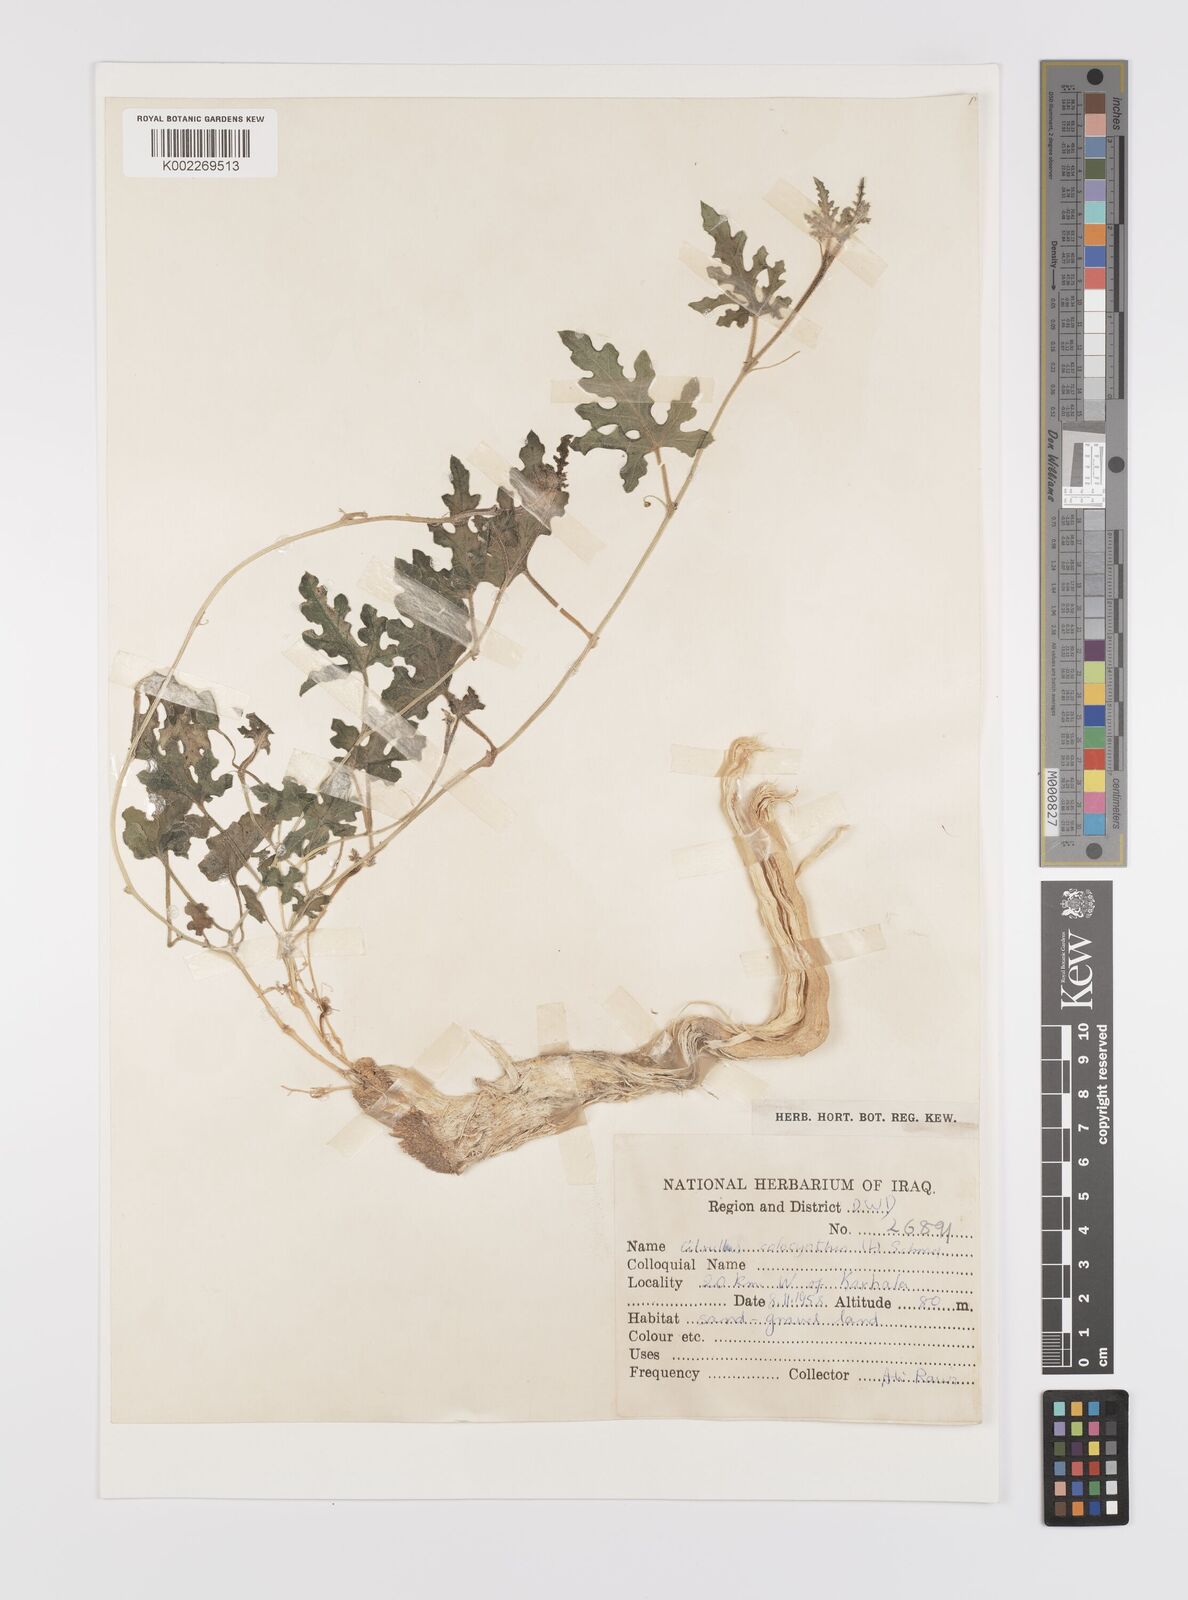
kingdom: Plantae
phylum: Tracheophyta
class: Magnoliopsida
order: Cucurbitales
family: Cucurbitaceae
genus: Citrullus
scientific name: Citrullus colocynthis
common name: Colocynth
